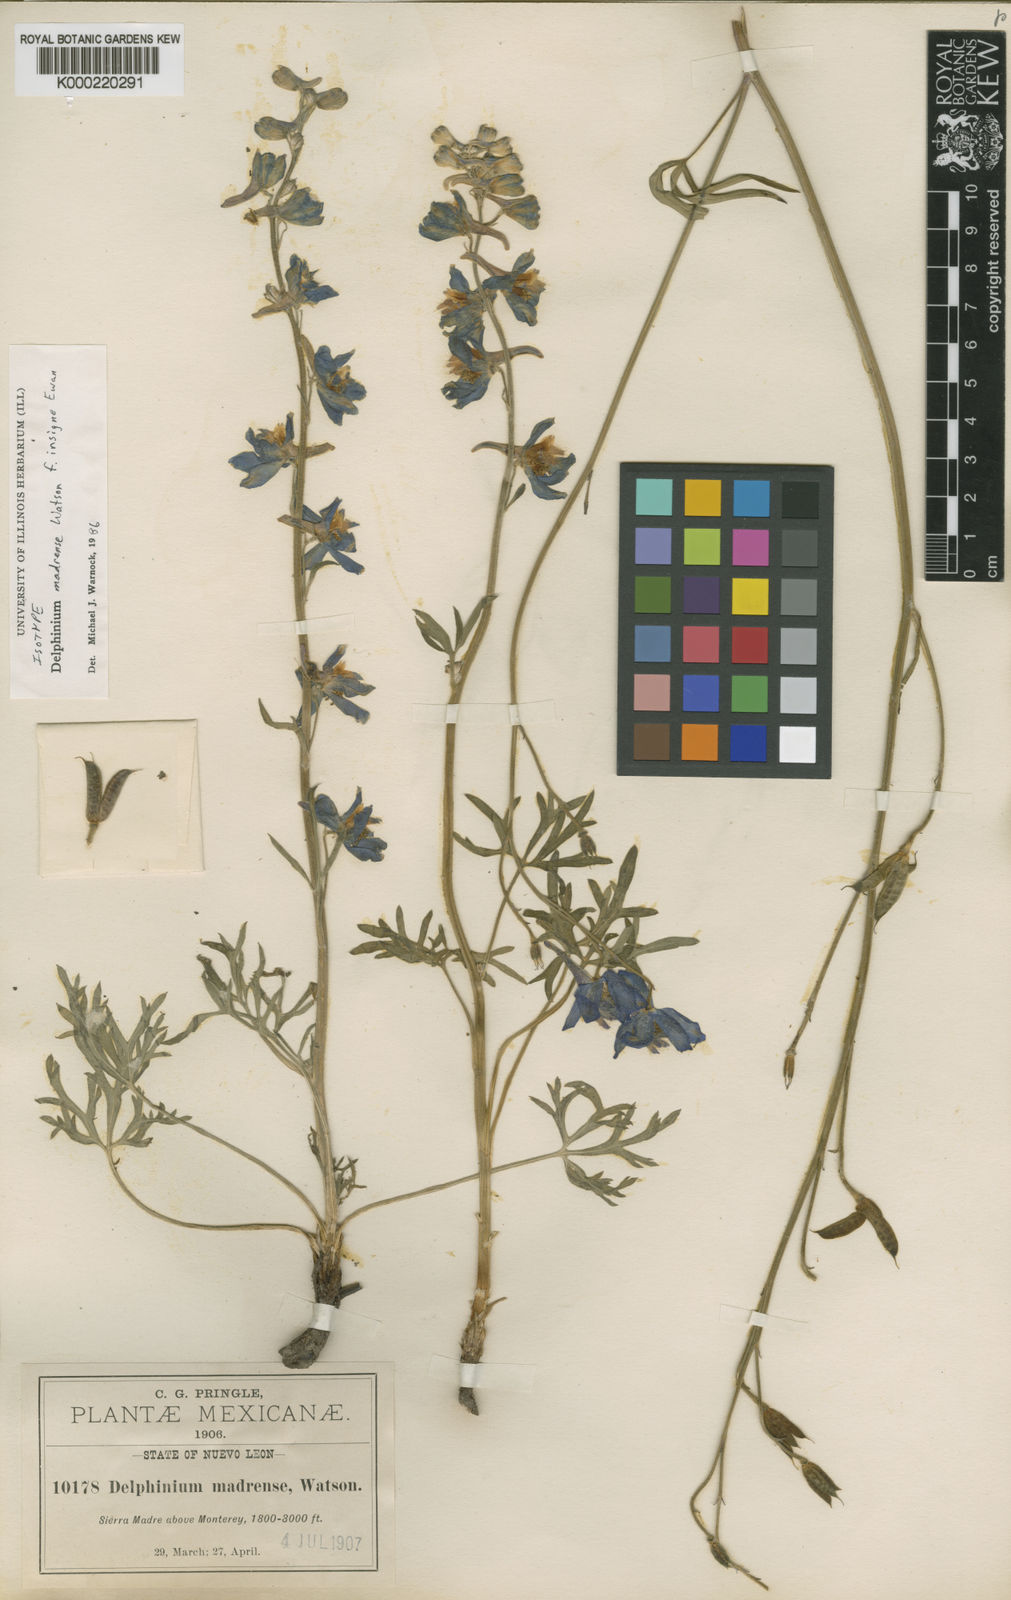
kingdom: Plantae
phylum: Tracheophyta
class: Magnoliopsida
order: Ranunculales
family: Ranunculaceae
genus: Delphinium
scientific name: Delphinium madrense
